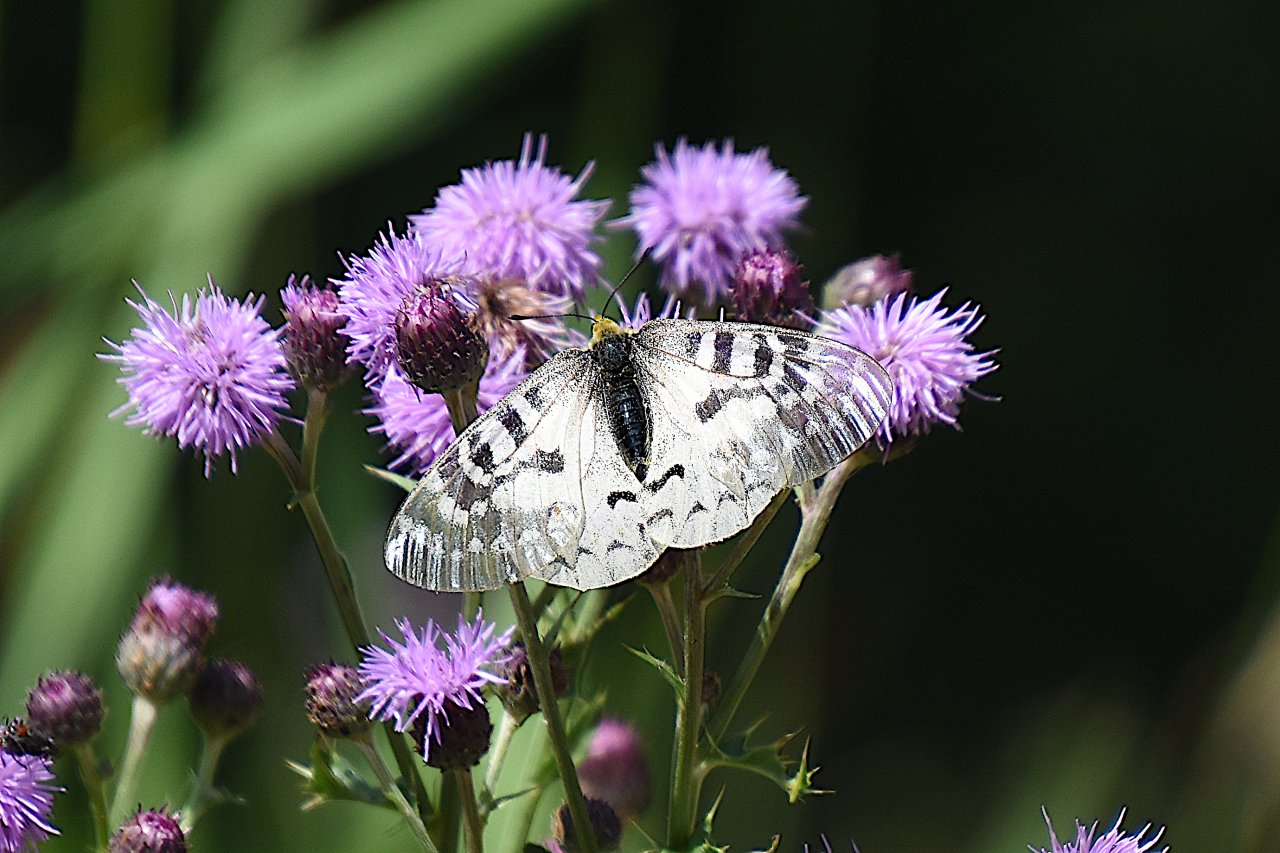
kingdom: Animalia
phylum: Arthropoda
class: Insecta
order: Lepidoptera
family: Papilionidae
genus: Parnassius
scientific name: Parnassius clodius
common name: Clodius Parnassian
